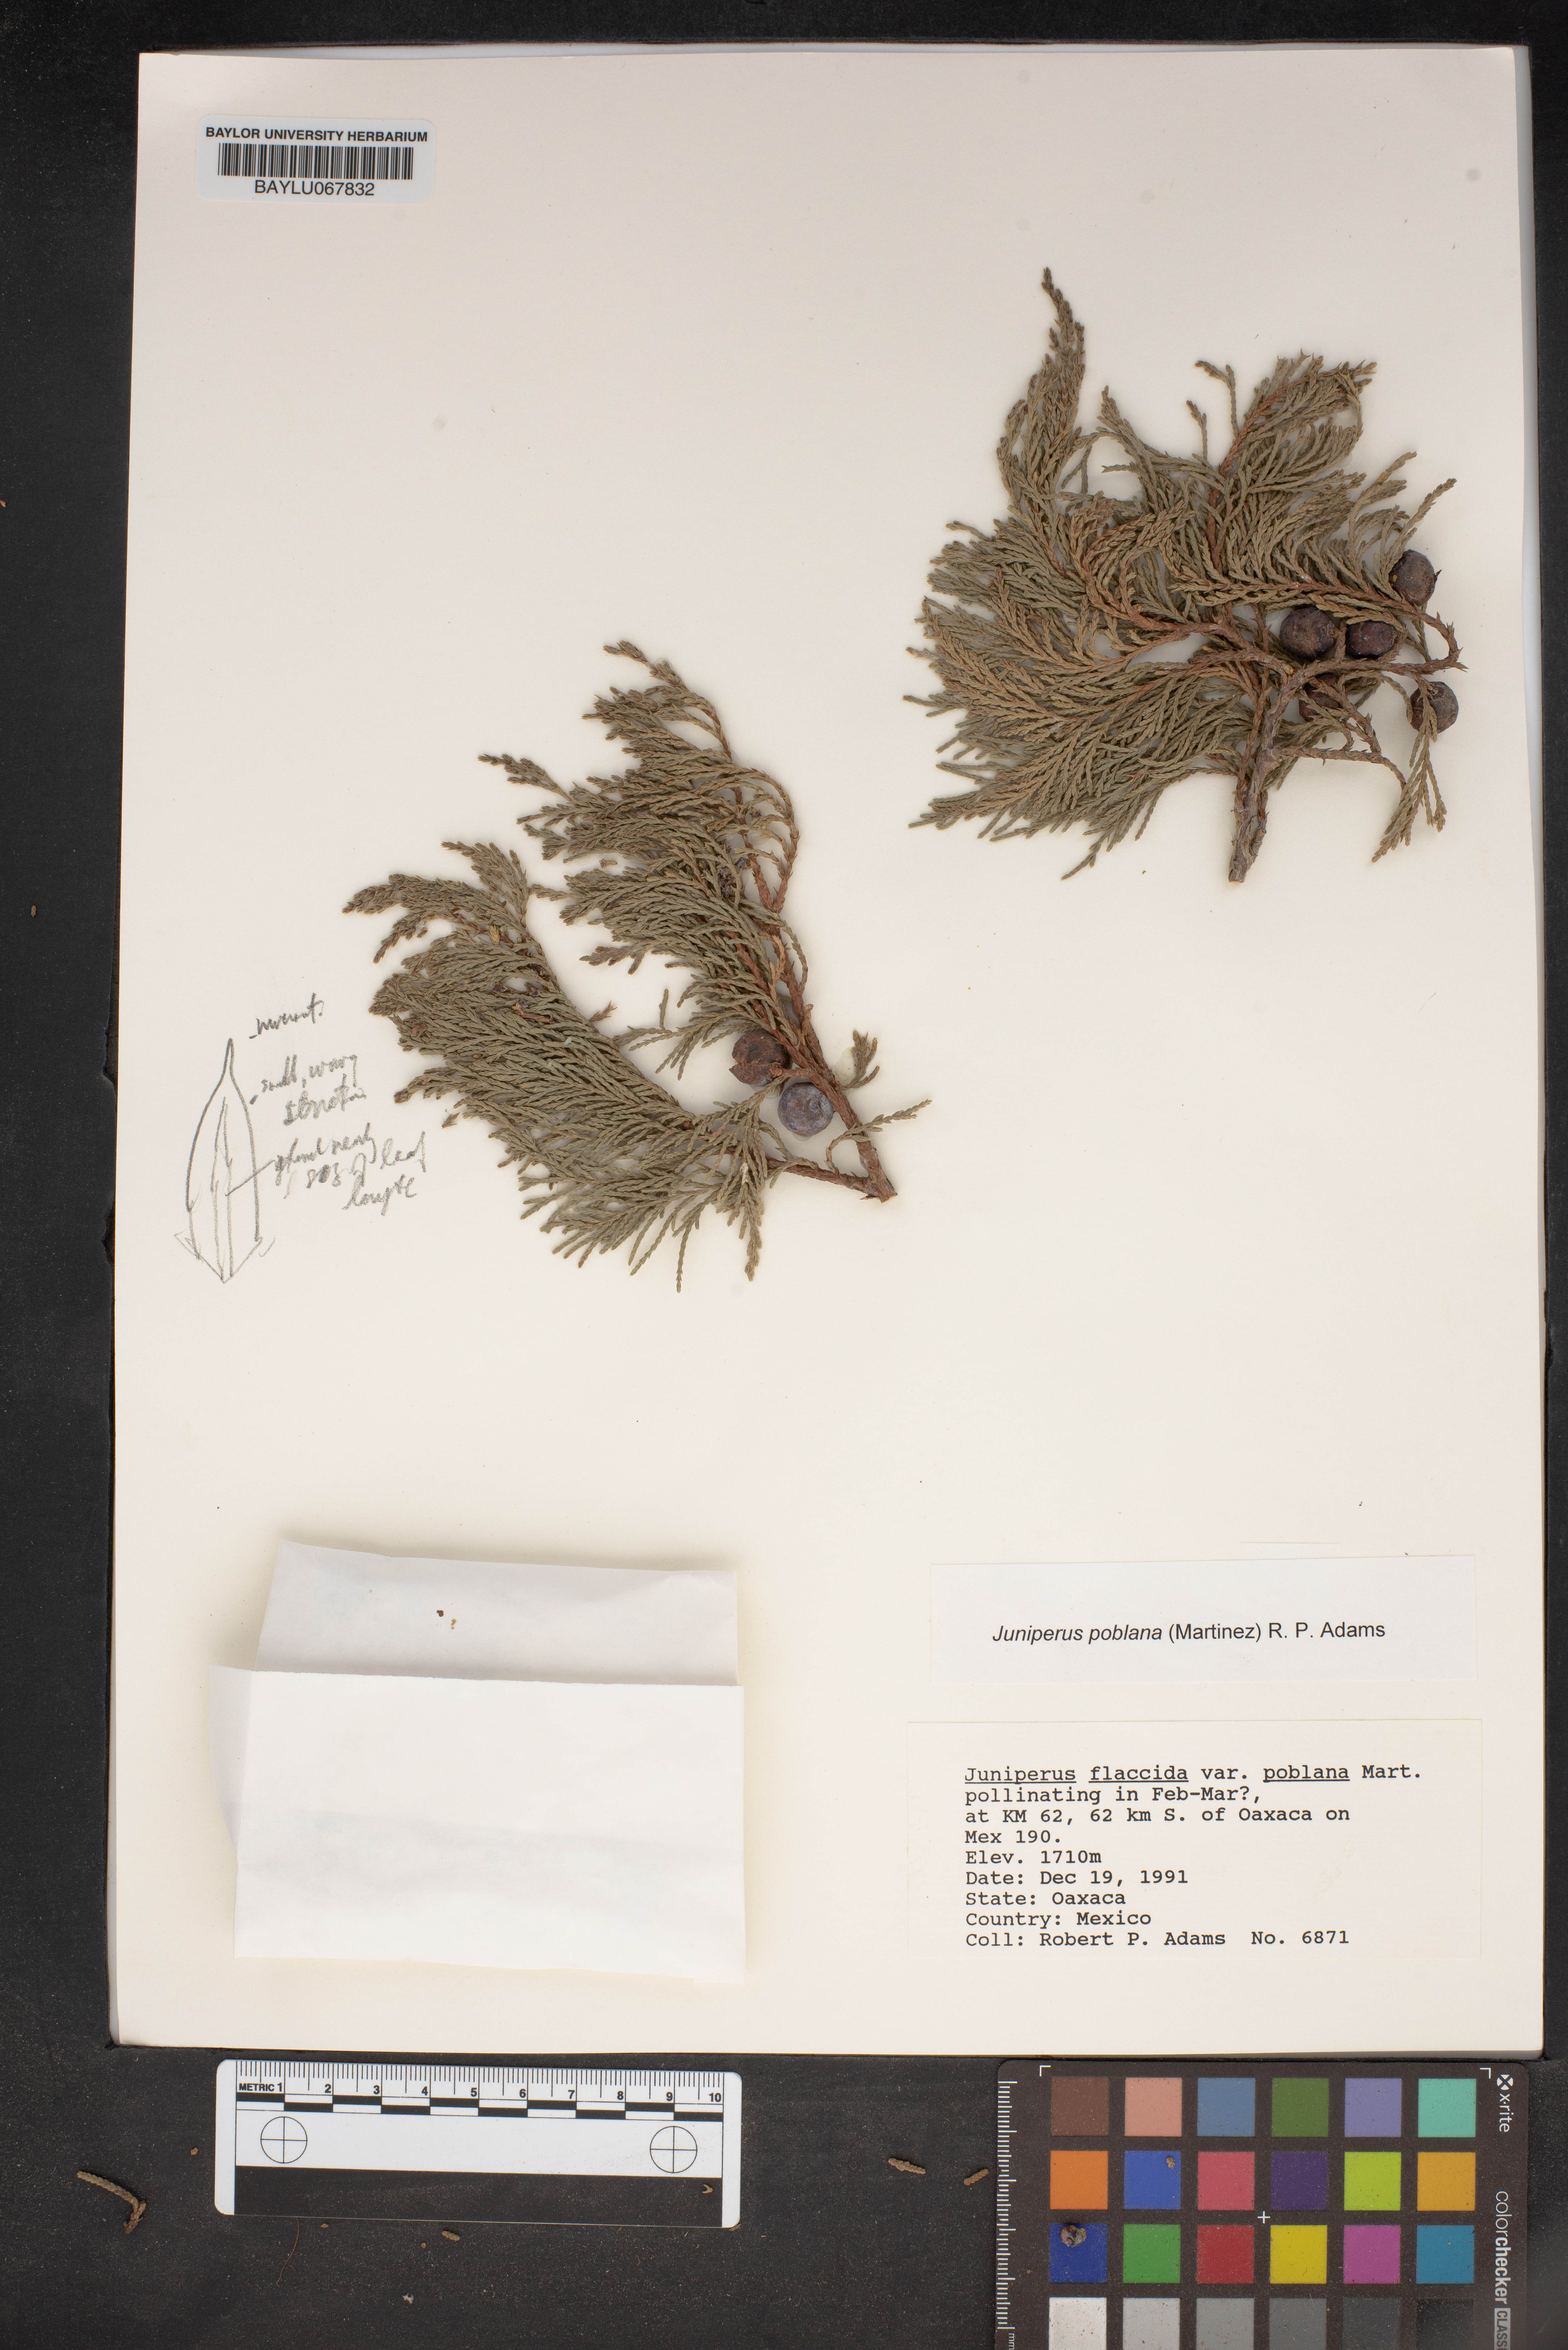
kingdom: Plantae
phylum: Tracheophyta
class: Pinopsida
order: Pinales
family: Cupressaceae
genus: Juniperus
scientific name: Juniperus flaccida
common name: Drooping juniper
